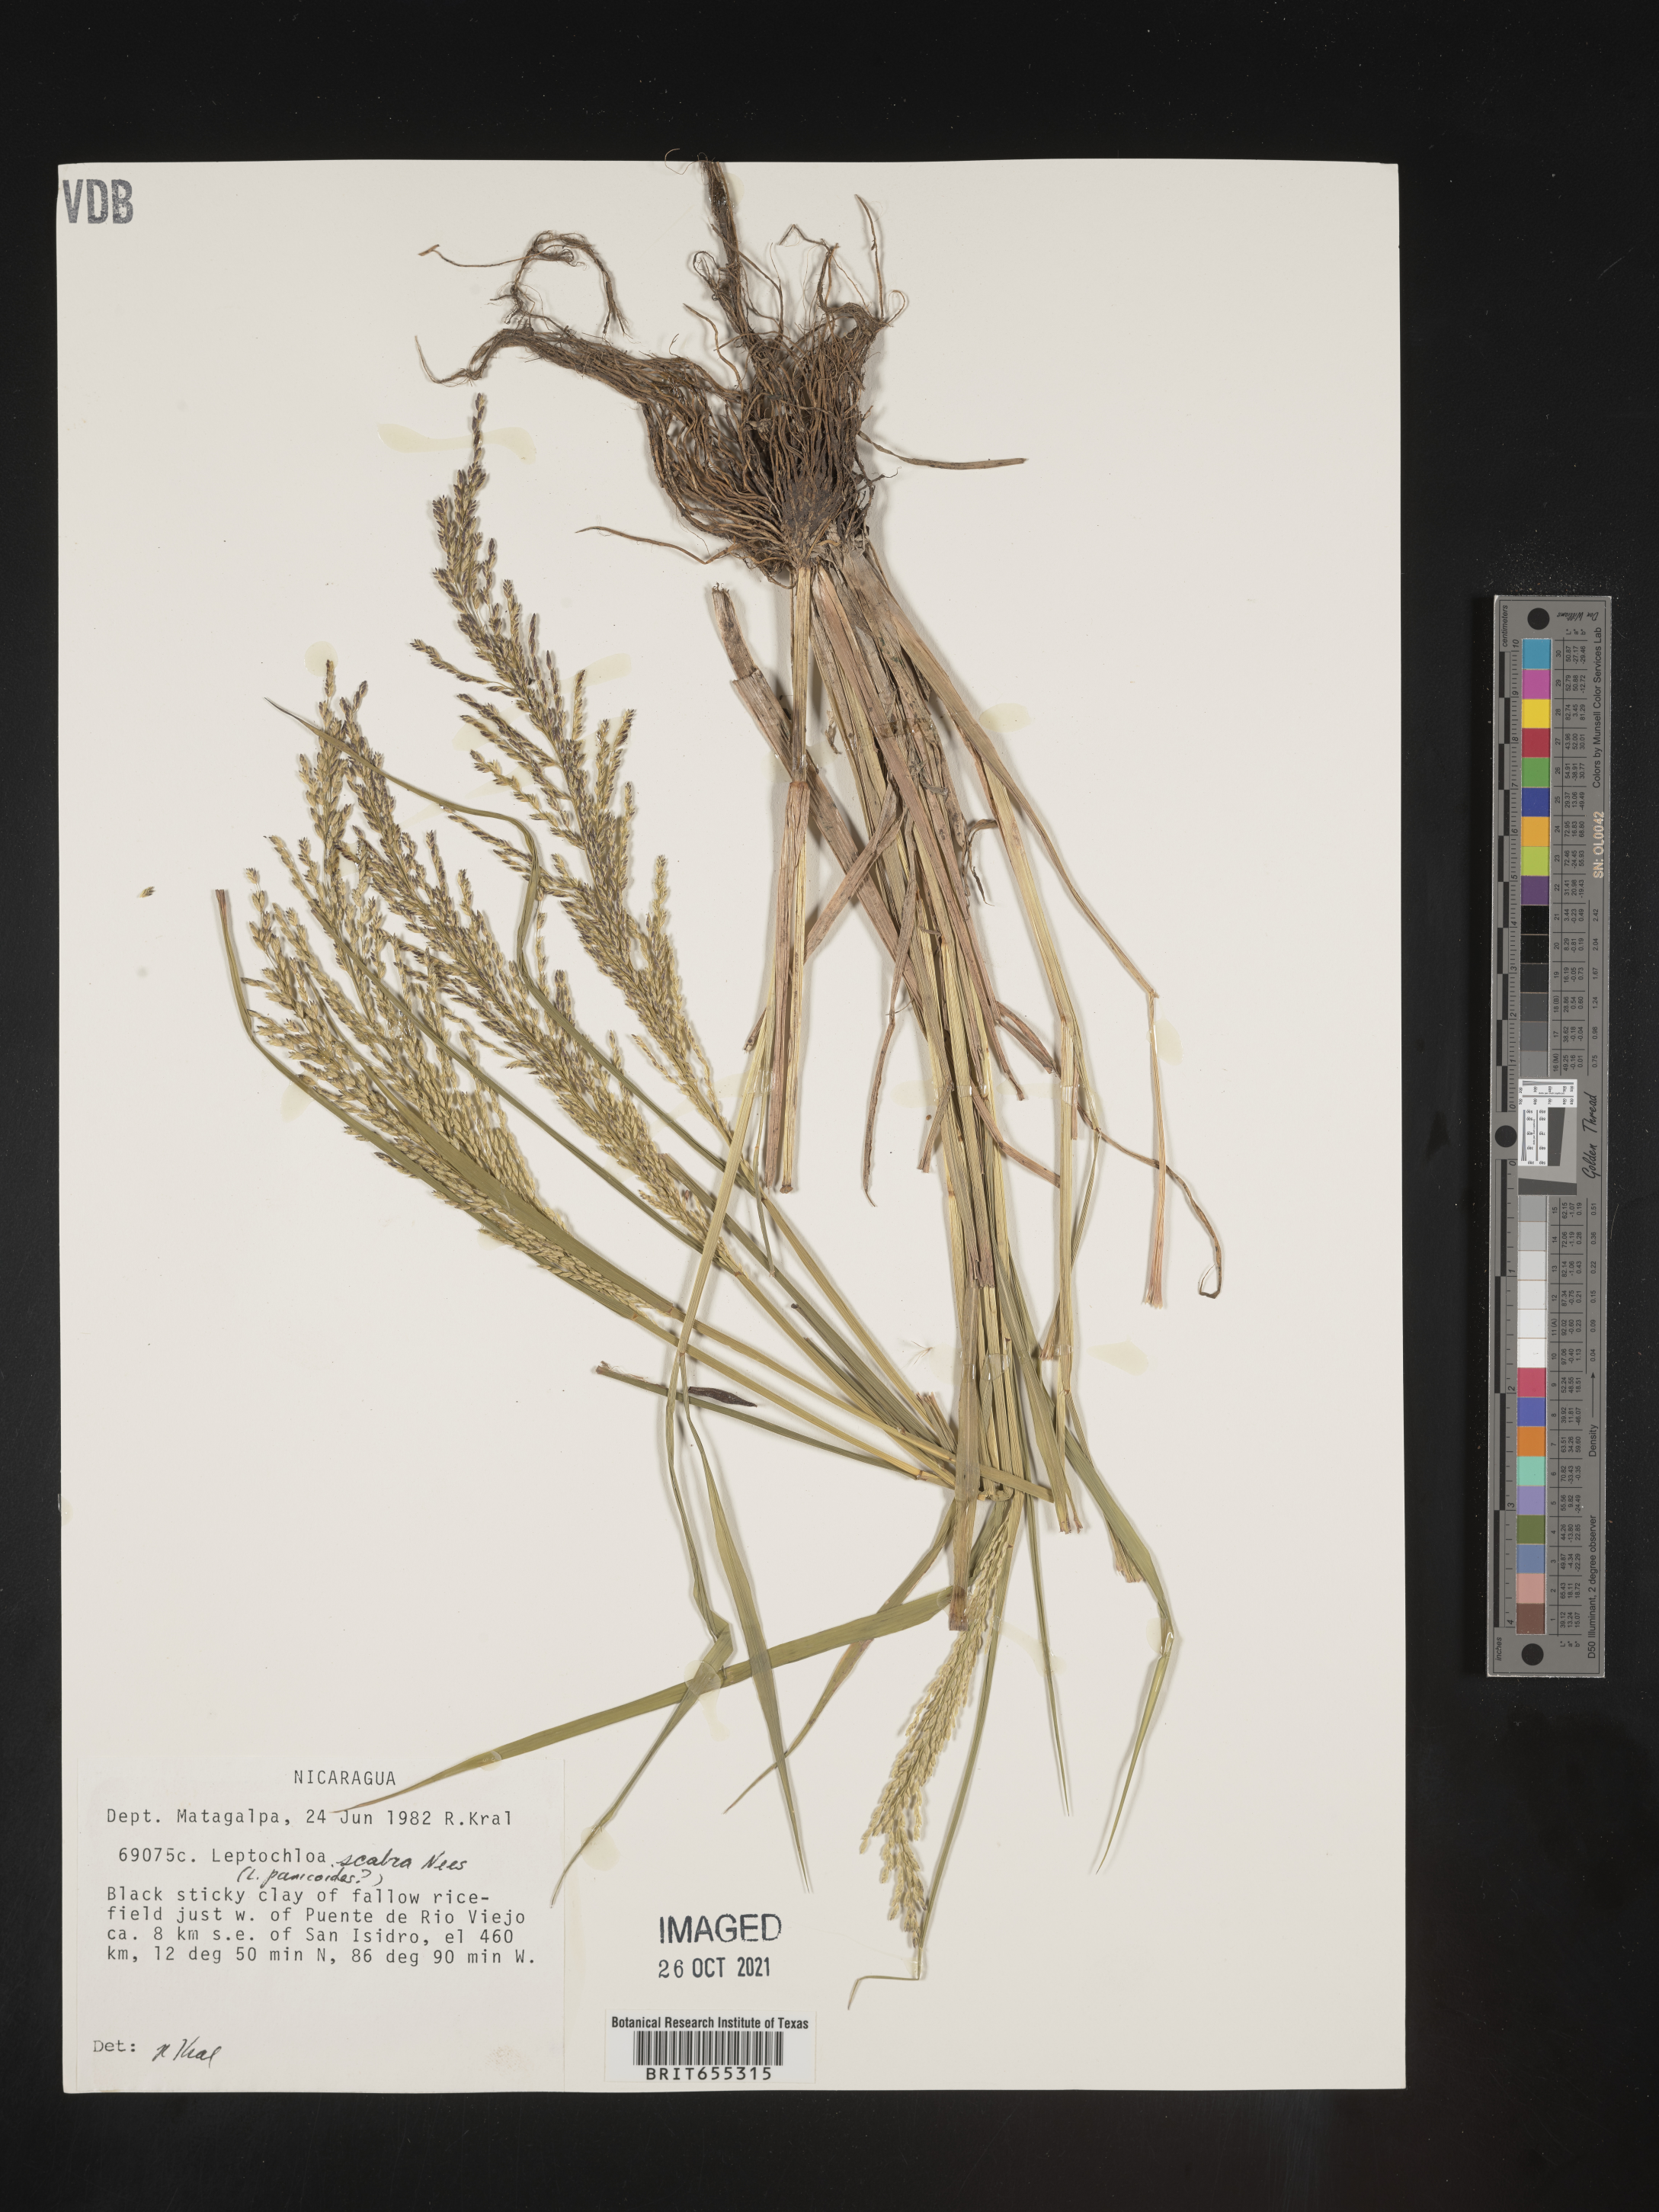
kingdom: Plantae
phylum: Tracheophyta
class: Liliopsida
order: Poales
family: Poaceae
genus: Digitaria
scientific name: Digitaria
